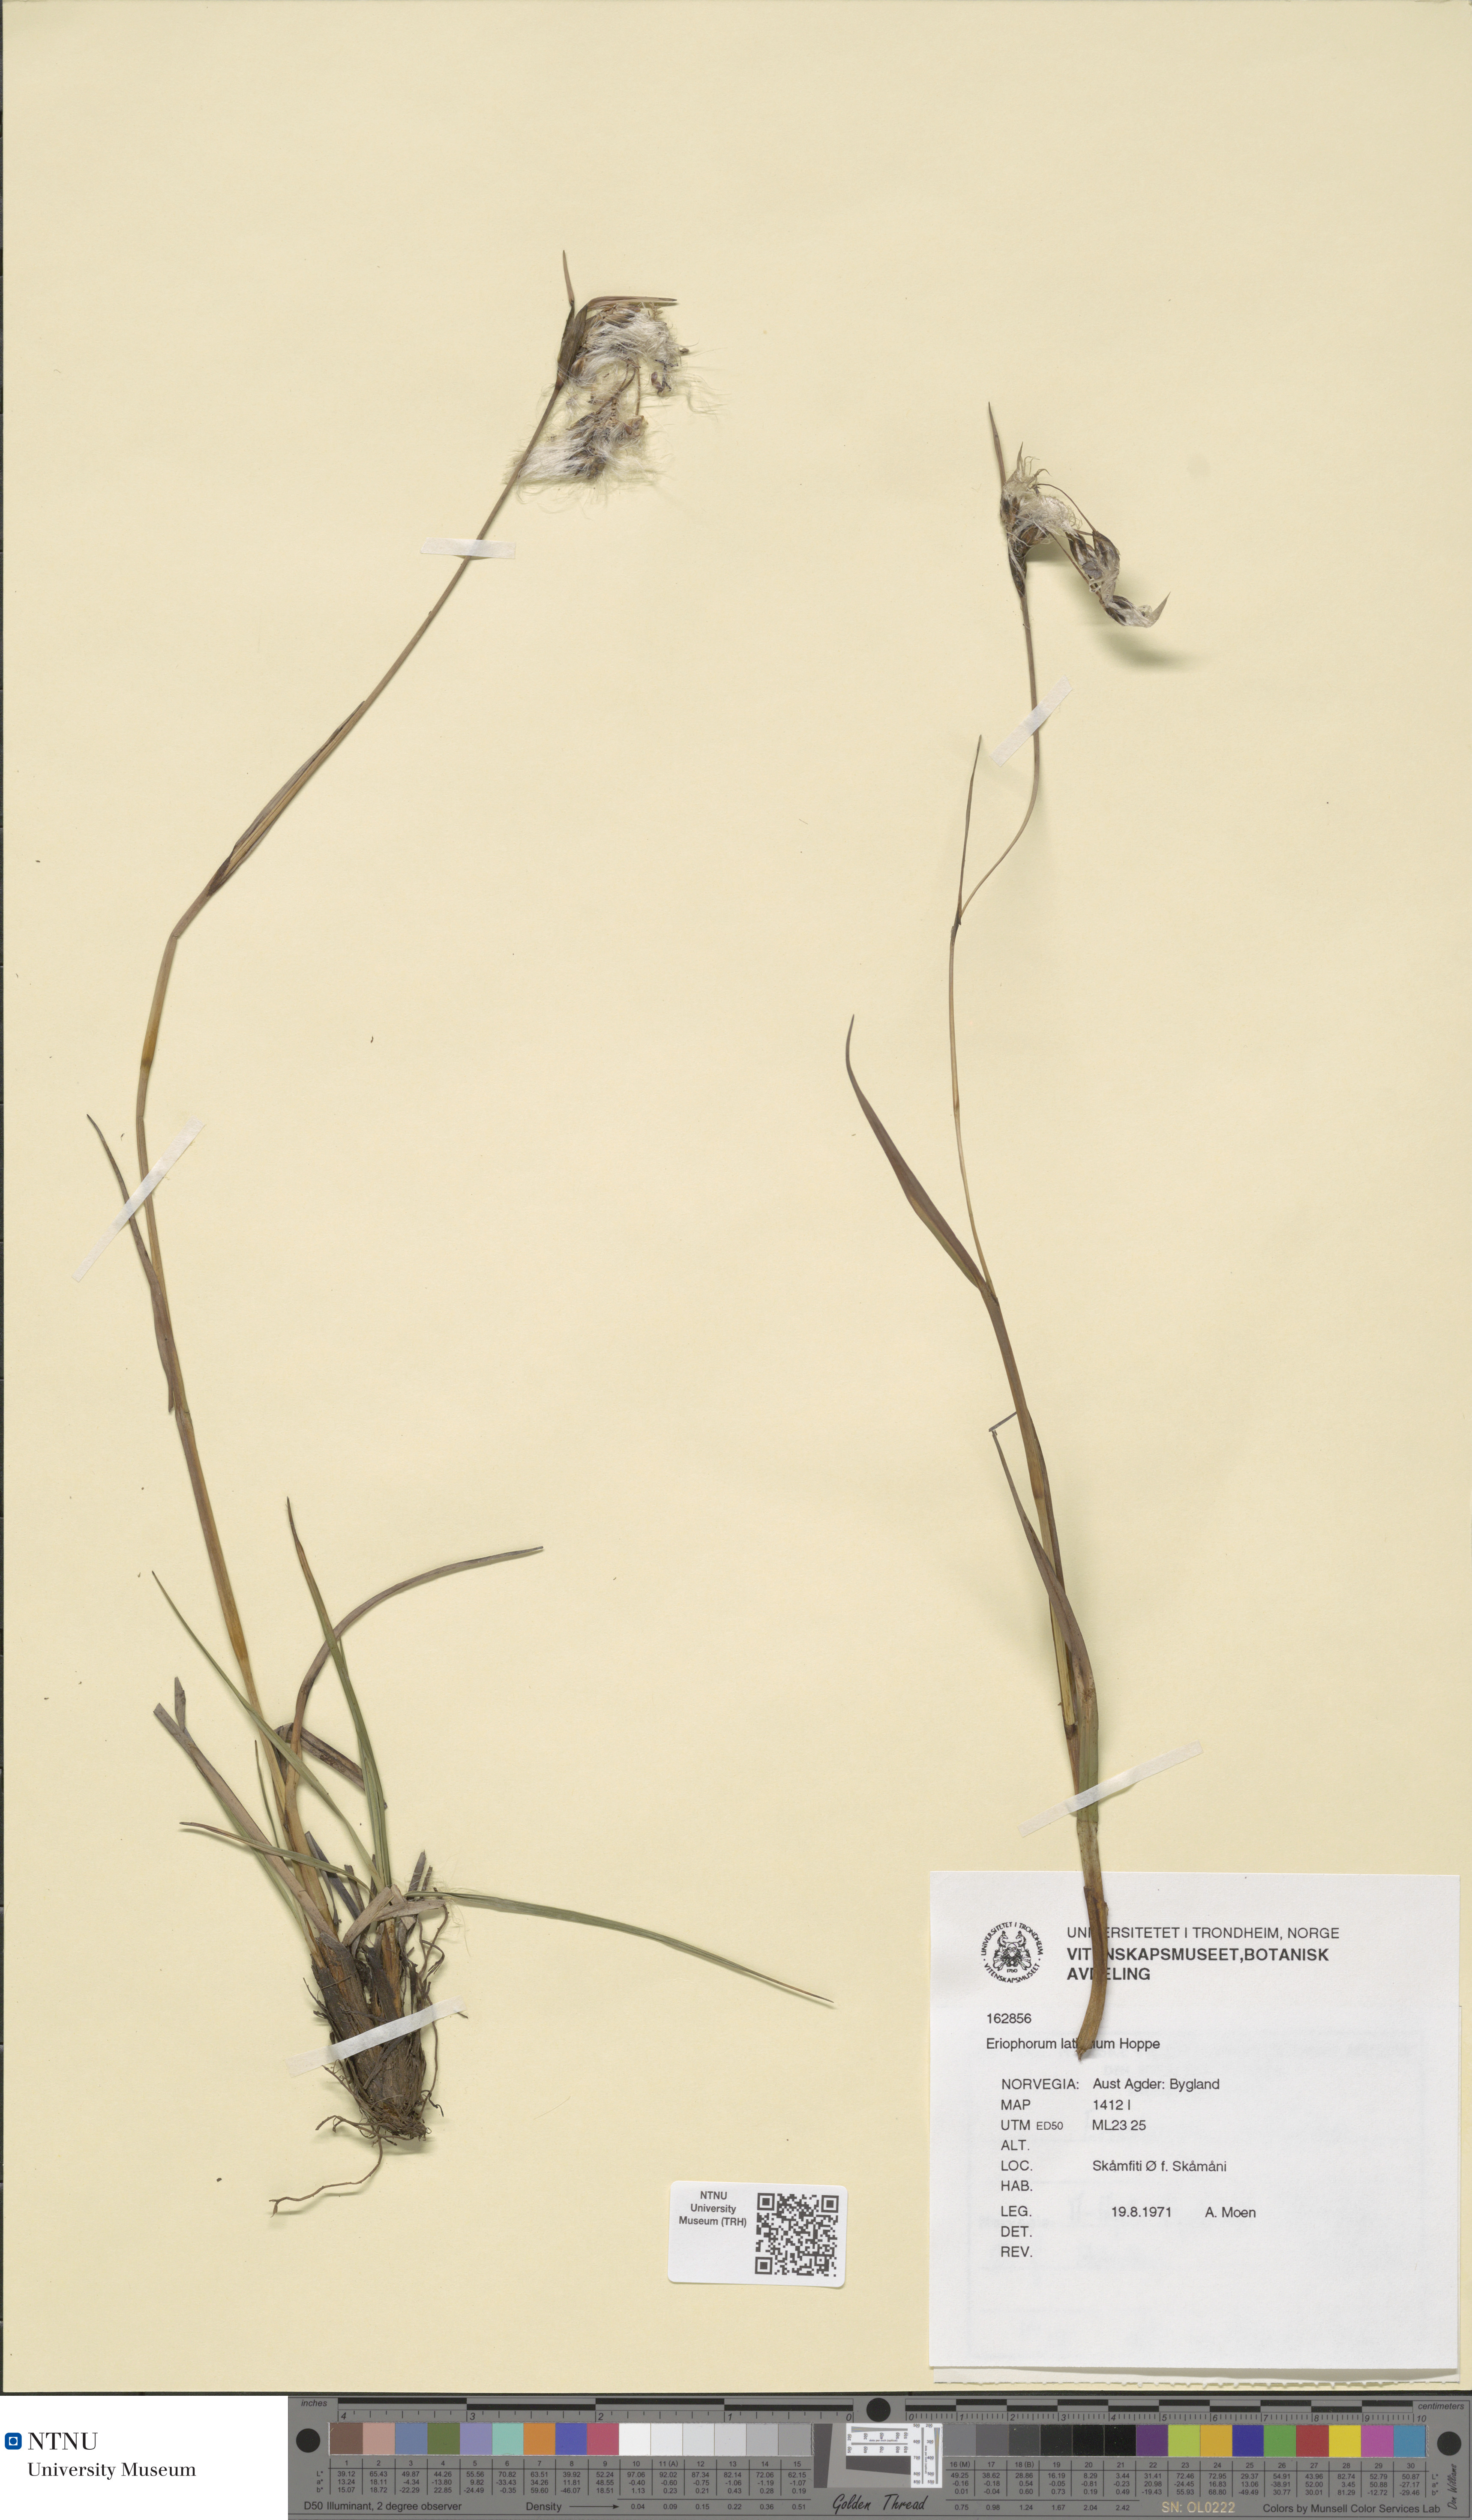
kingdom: Plantae
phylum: Tracheophyta
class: Liliopsida
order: Poales
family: Cyperaceae
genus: Eriophorum
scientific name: Eriophorum latifolium
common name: Broad-leaved cottongrass
